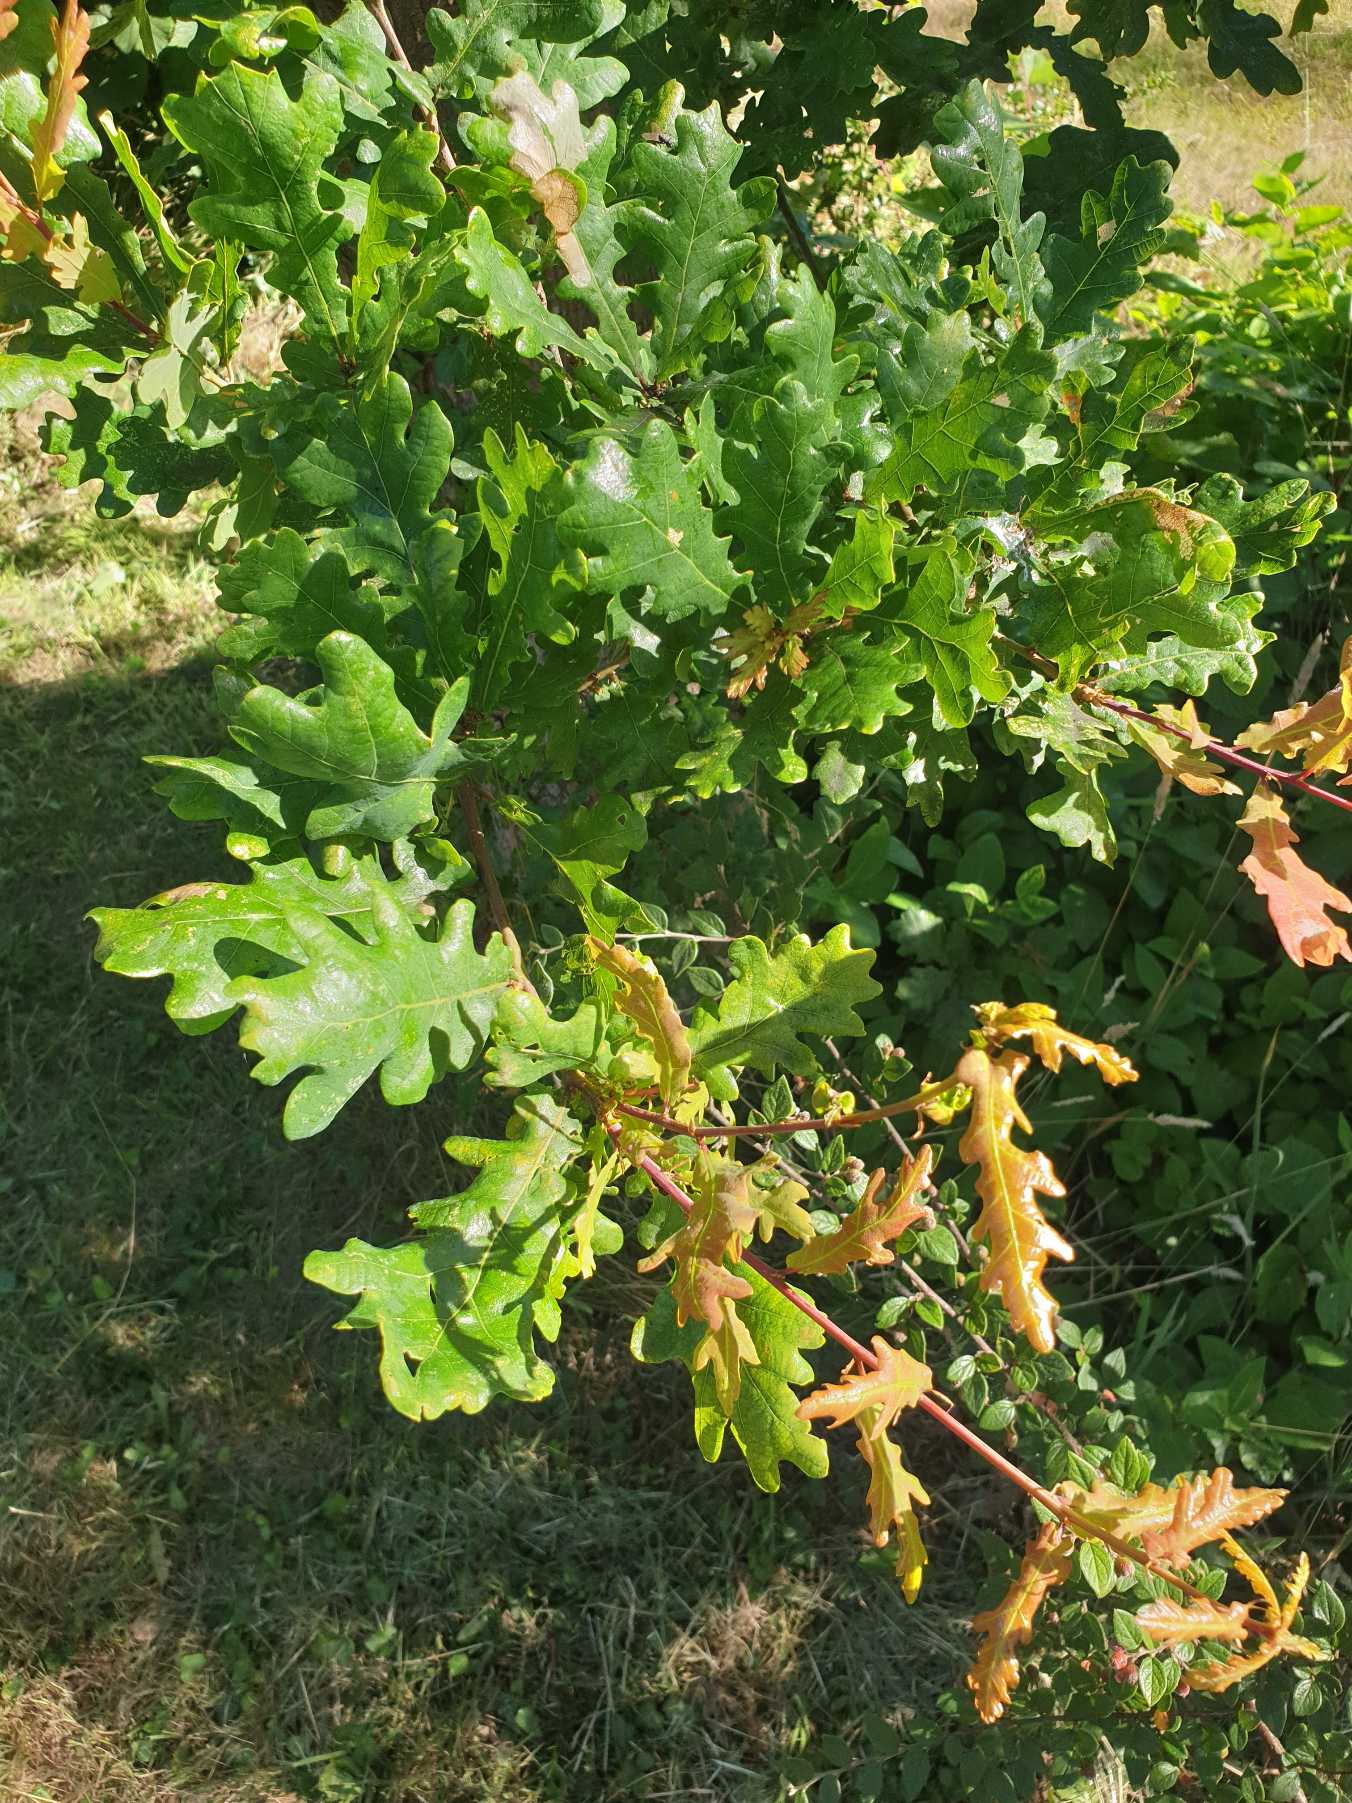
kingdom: Plantae
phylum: Tracheophyta
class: Magnoliopsida
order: Fagales
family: Fagaceae
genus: Quercus
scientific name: Quercus robur
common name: Stilk-eg/almindelig eg
